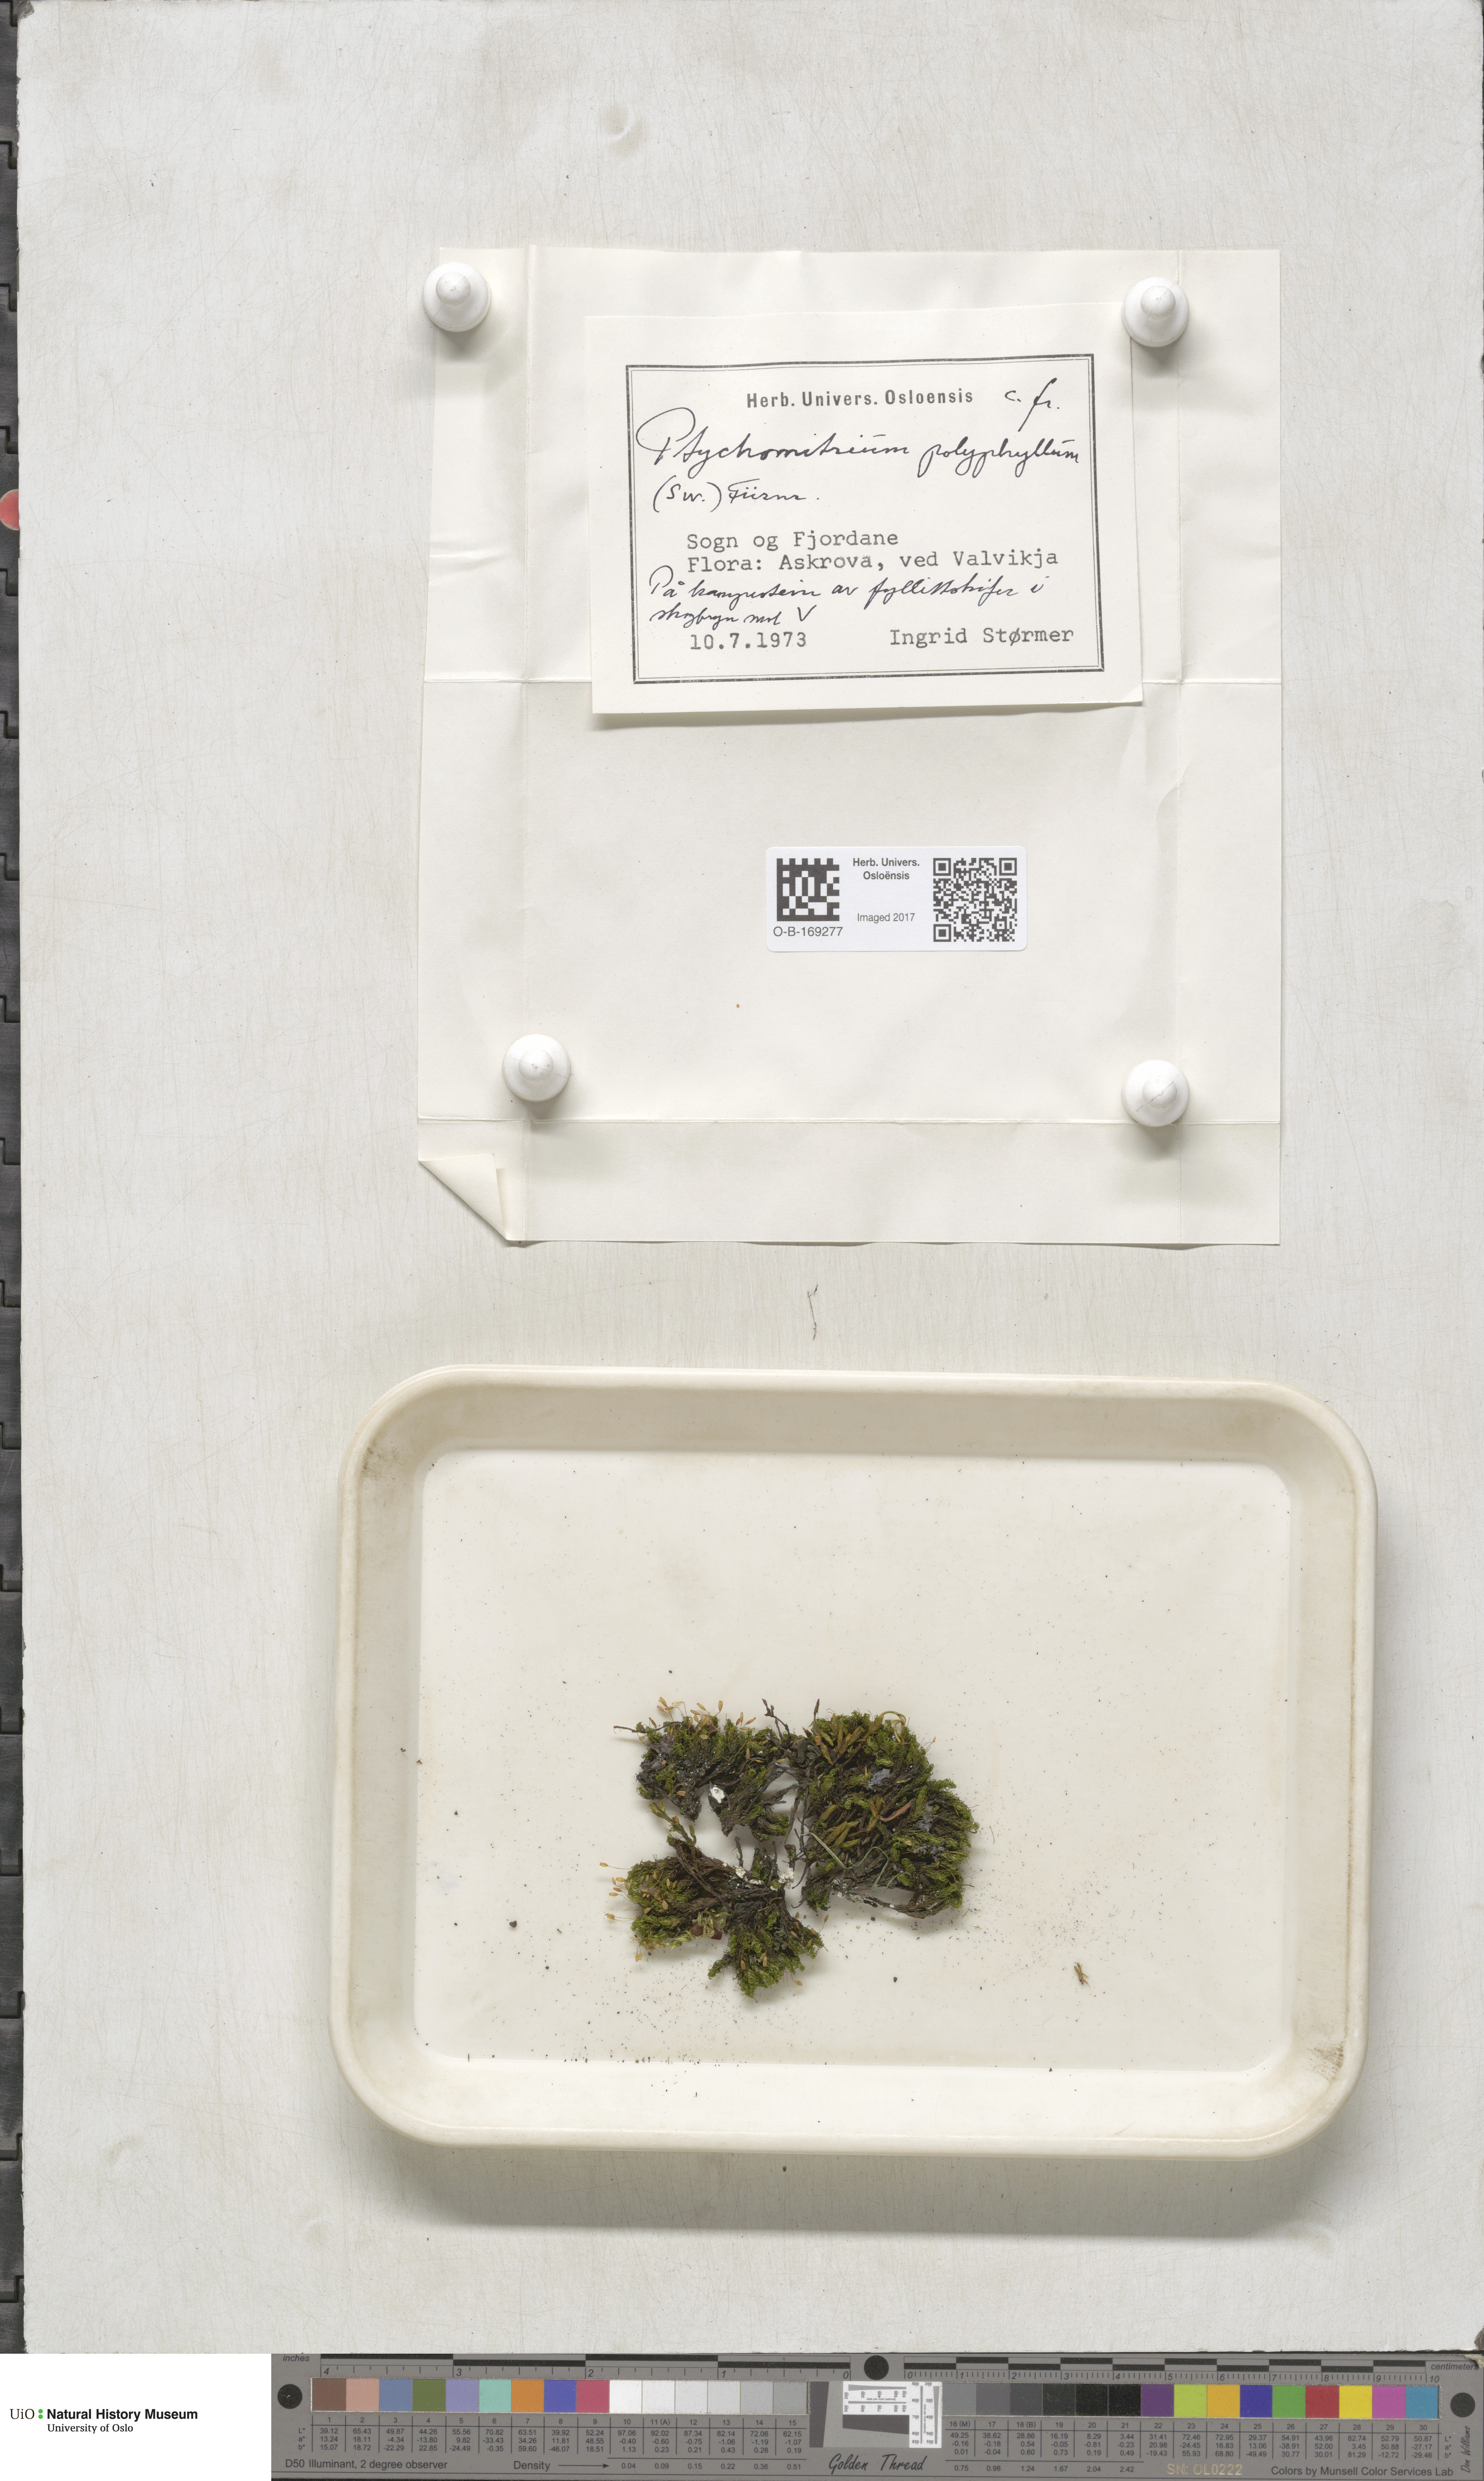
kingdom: Plantae
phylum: Bryophyta
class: Bryopsida
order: Grimmiales
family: Ptychomitriaceae
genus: Ptychomitrium
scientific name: Ptychomitrium polyphyllum
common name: Greater pincushion
